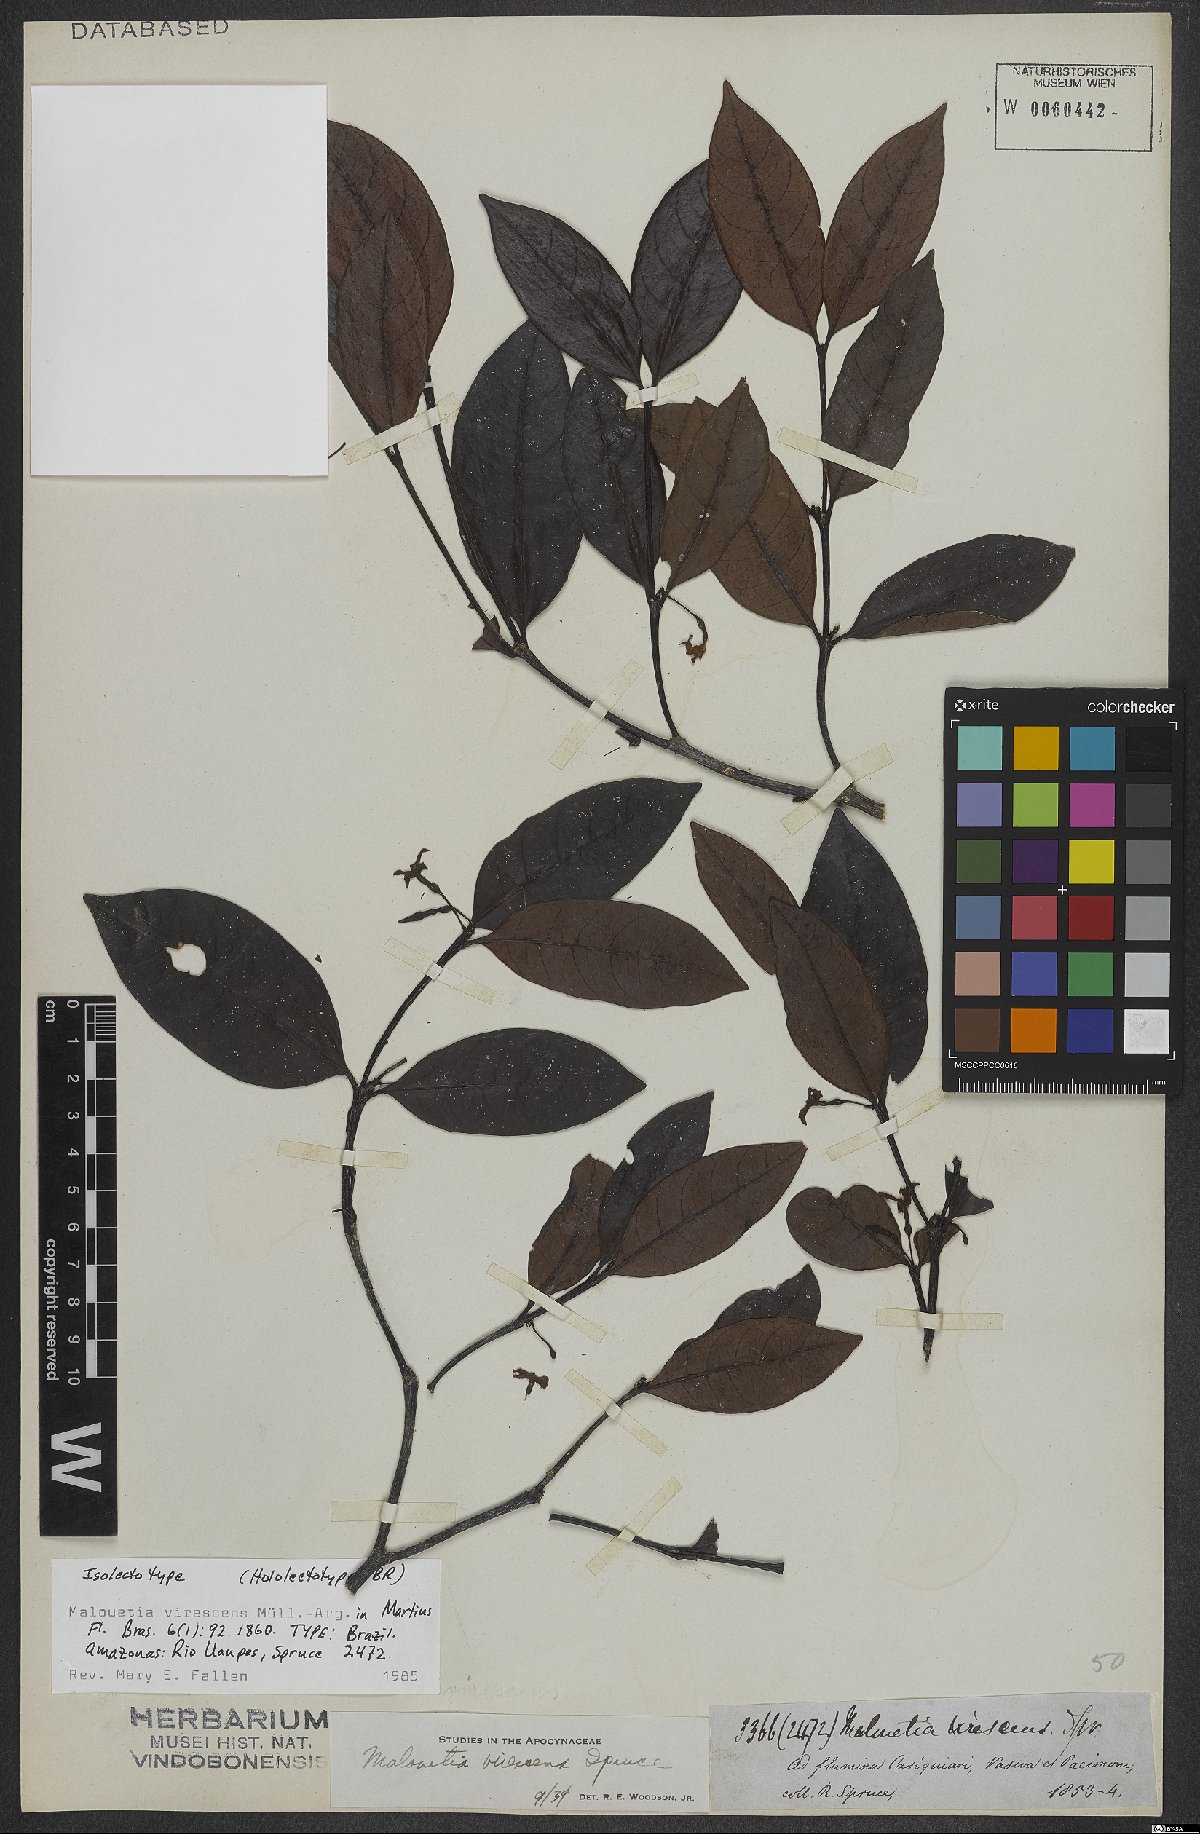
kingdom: Plantae
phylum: Tracheophyta
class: Magnoliopsida
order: Gentianales
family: Apocynaceae
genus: Malouetia
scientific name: Malouetia virescens
